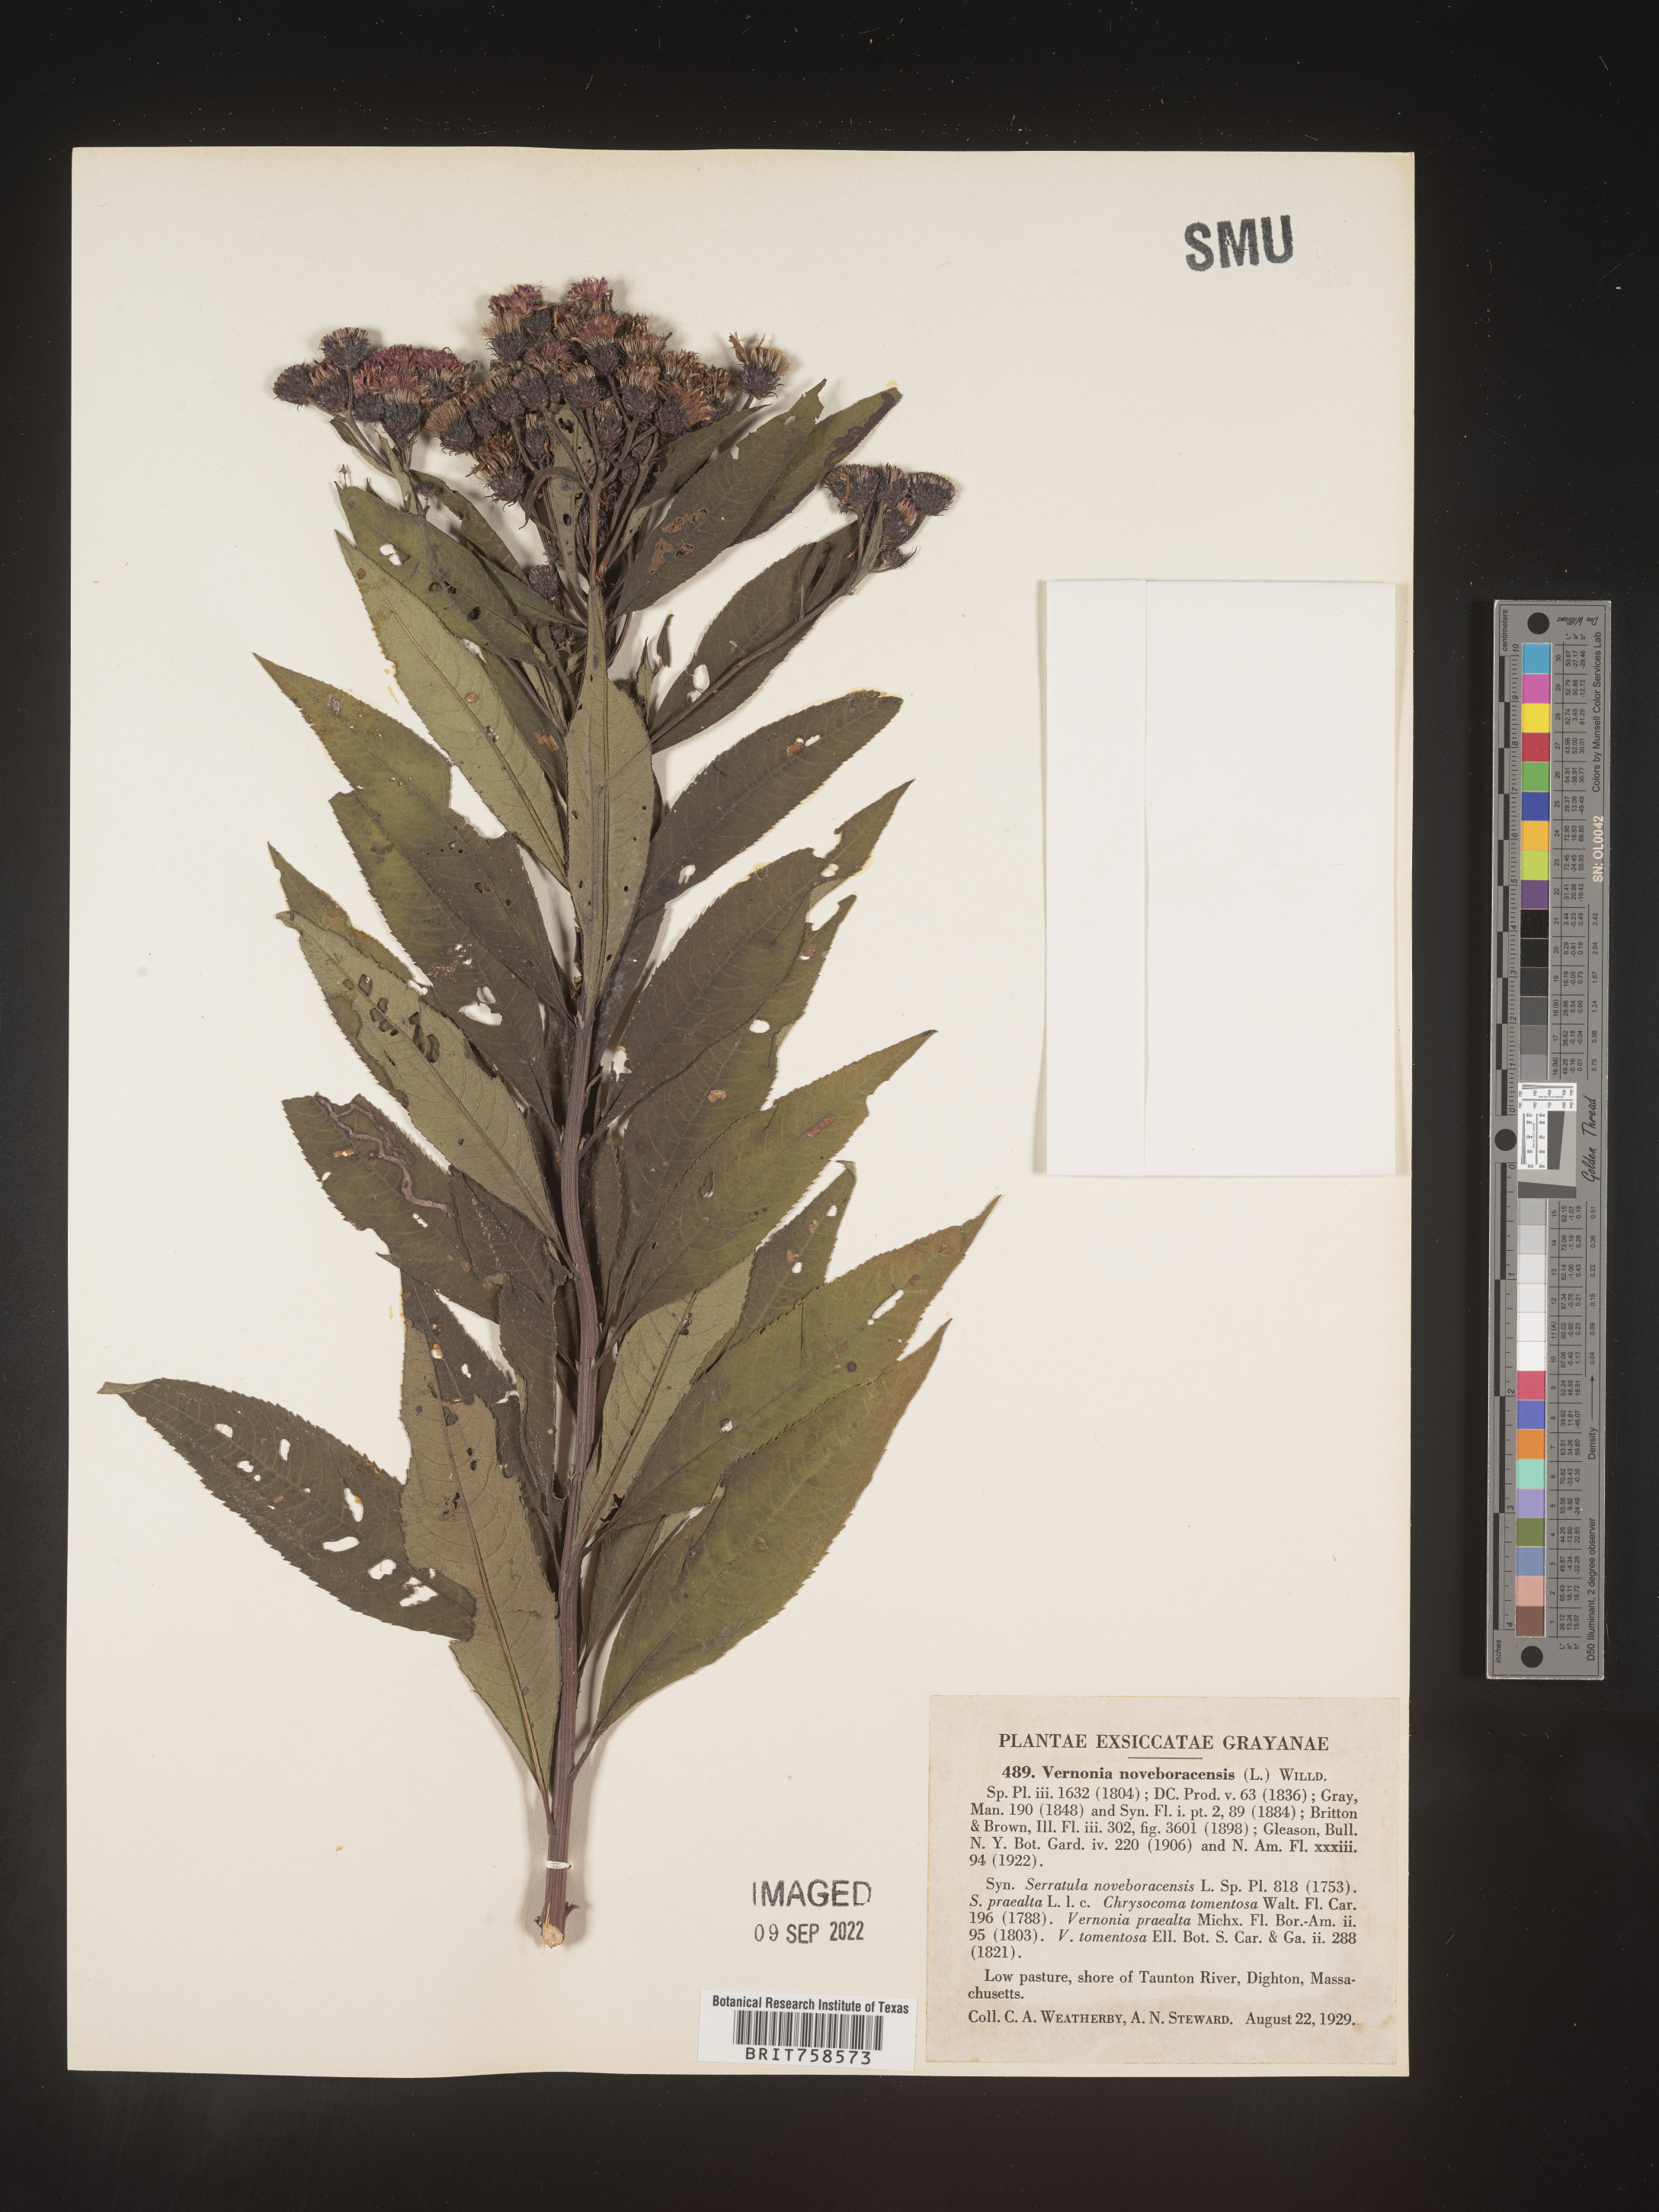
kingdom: Plantae
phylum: Tracheophyta
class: Magnoliopsida
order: Asterales
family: Asteraceae
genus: Vernonia
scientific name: Vernonia noveboracensis
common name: New york ironweed
